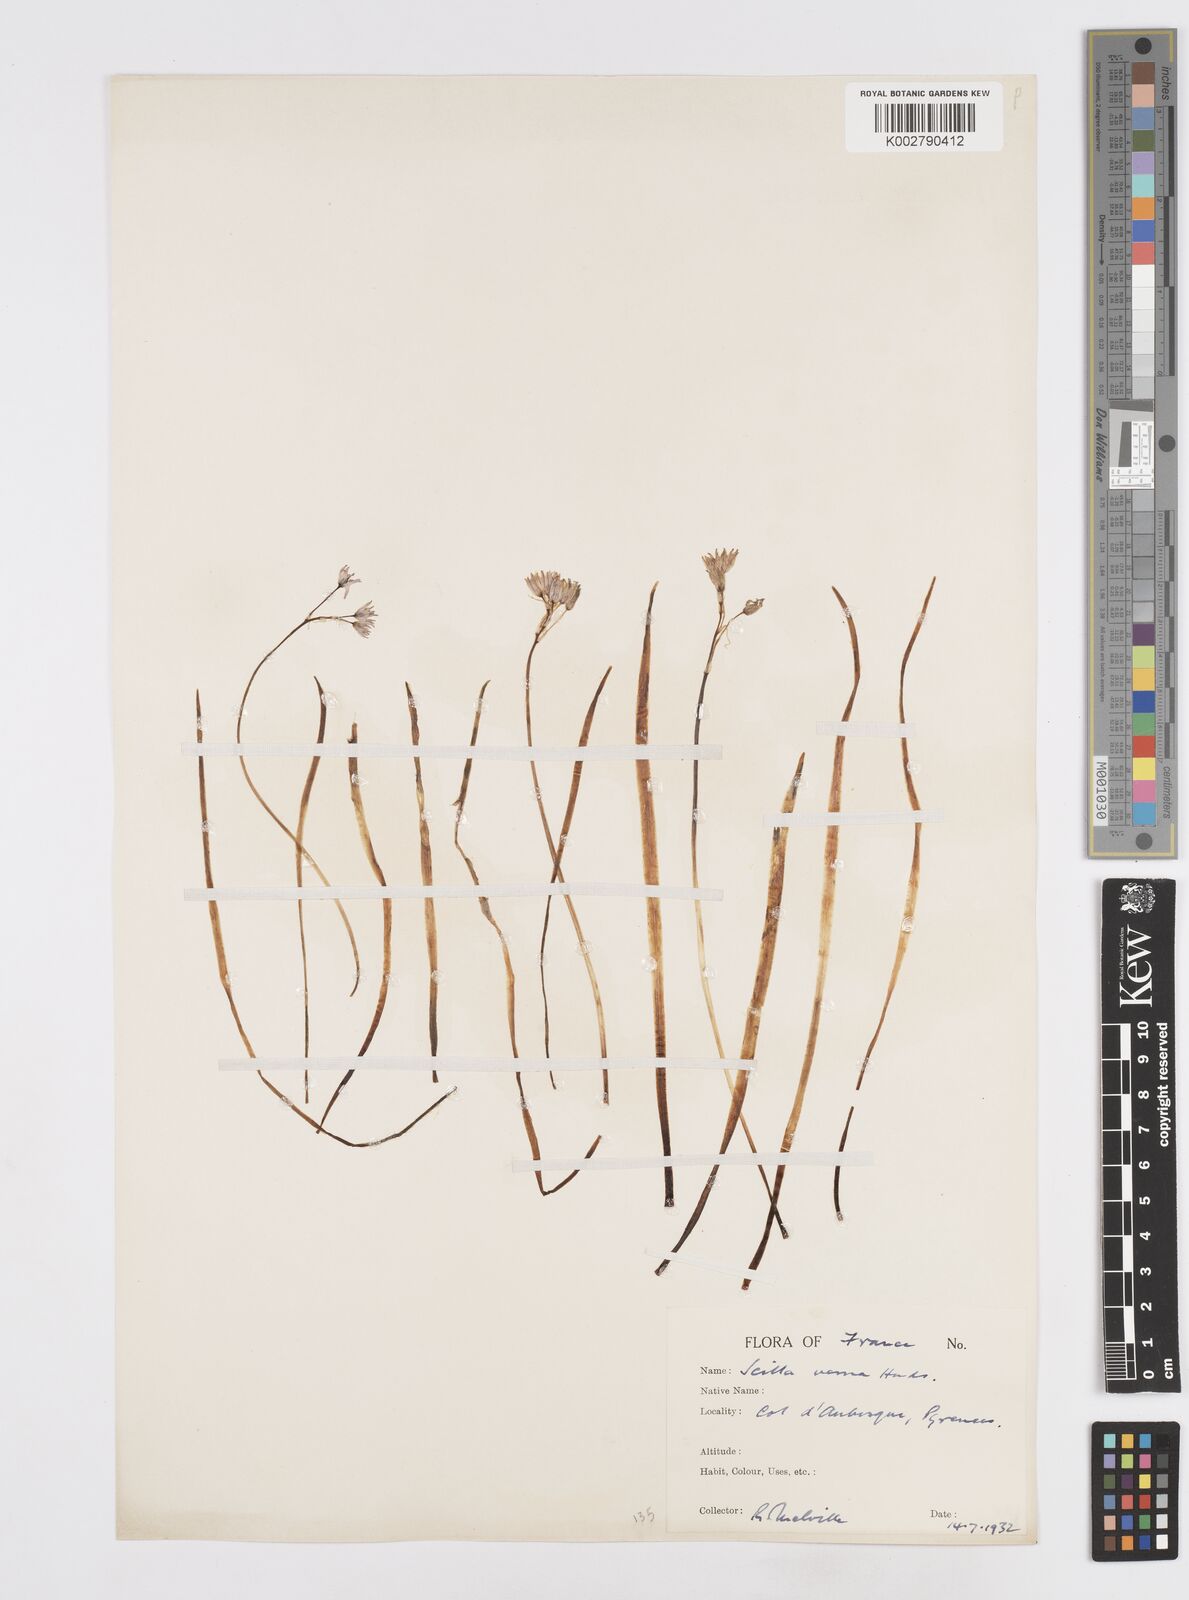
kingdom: Plantae
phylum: Tracheophyta
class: Liliopsida
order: Asparagales
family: Asparagaceae
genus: Scilla
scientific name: Scilla verna
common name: Spring squill
